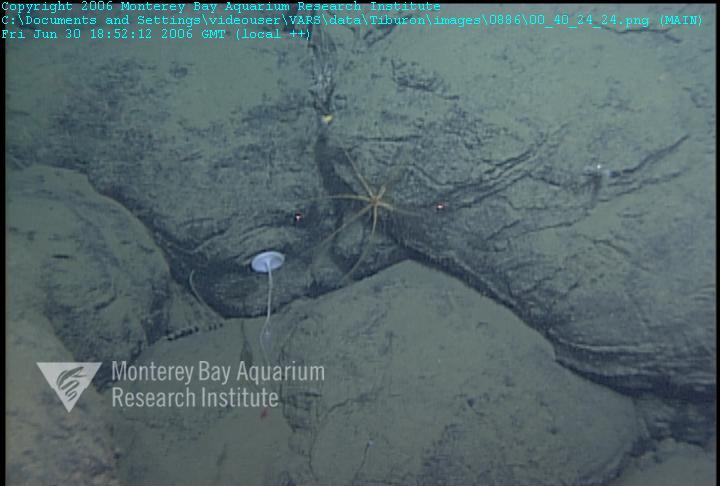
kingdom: Animalia
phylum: Porifera
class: Hexactinellida
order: Lyssacinosida
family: Rossellidae
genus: Caulophacus
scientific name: Caulophacus cyanae
